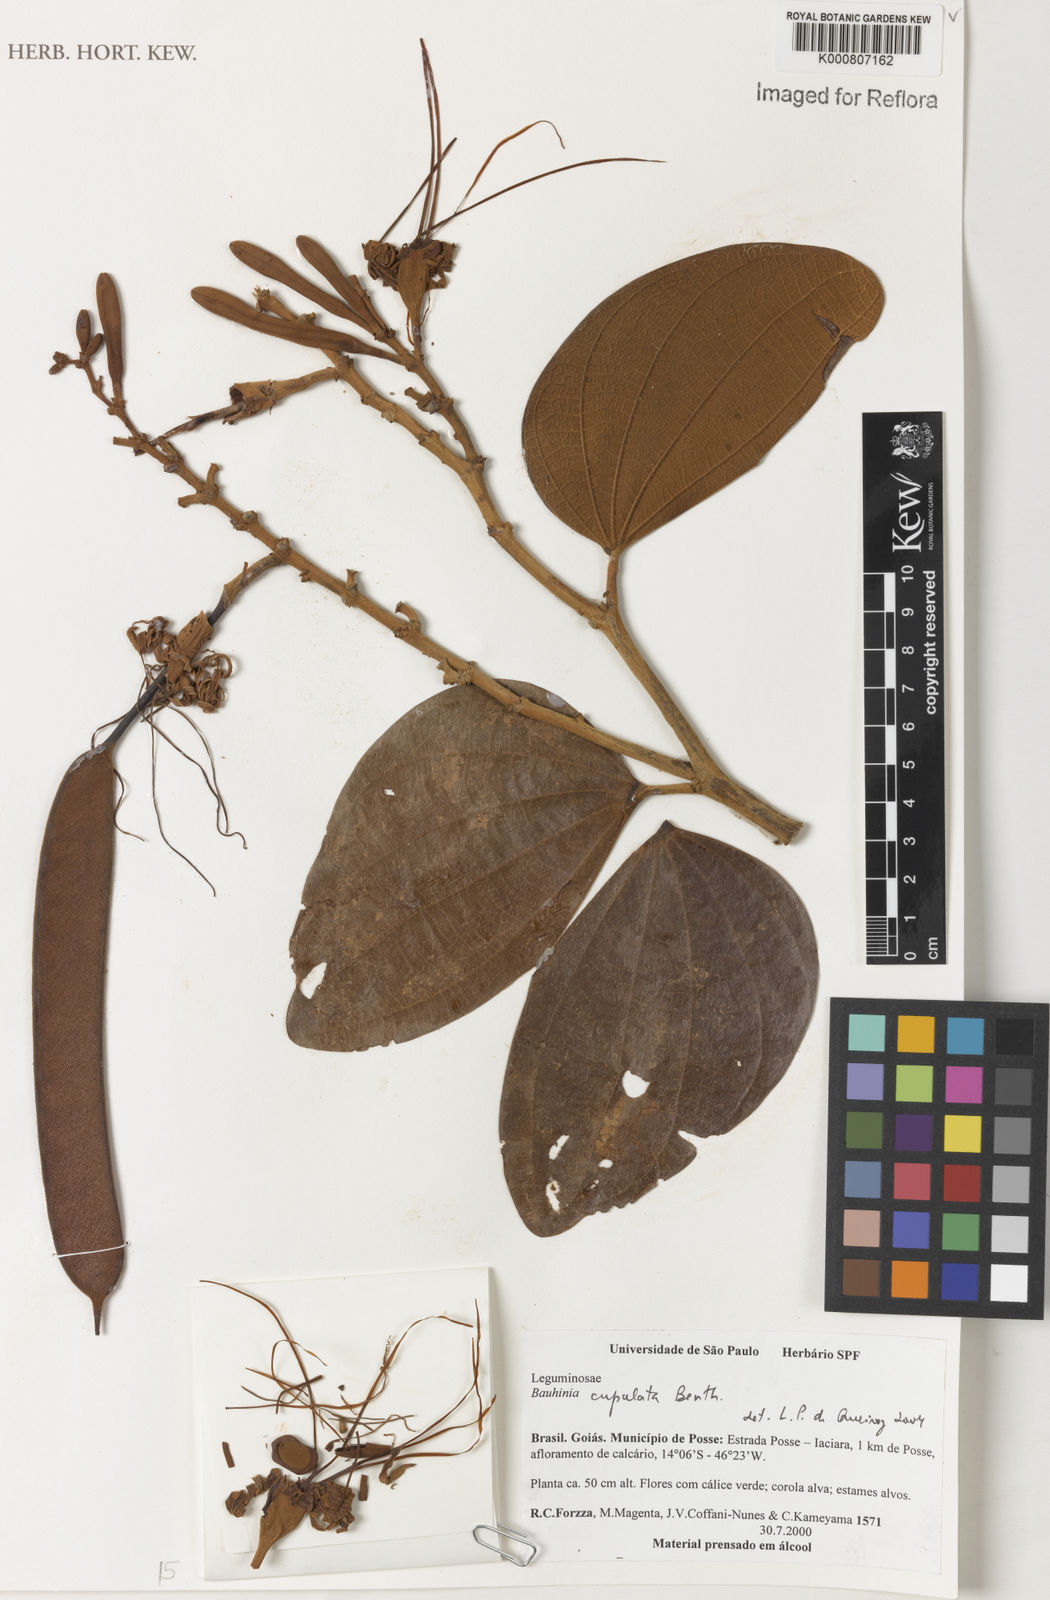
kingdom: Plantae
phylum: Tracheophyta
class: Magnoliopsida
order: Fabales
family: Fabaceae
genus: Bauhinia
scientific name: Bauhinia cupulata
